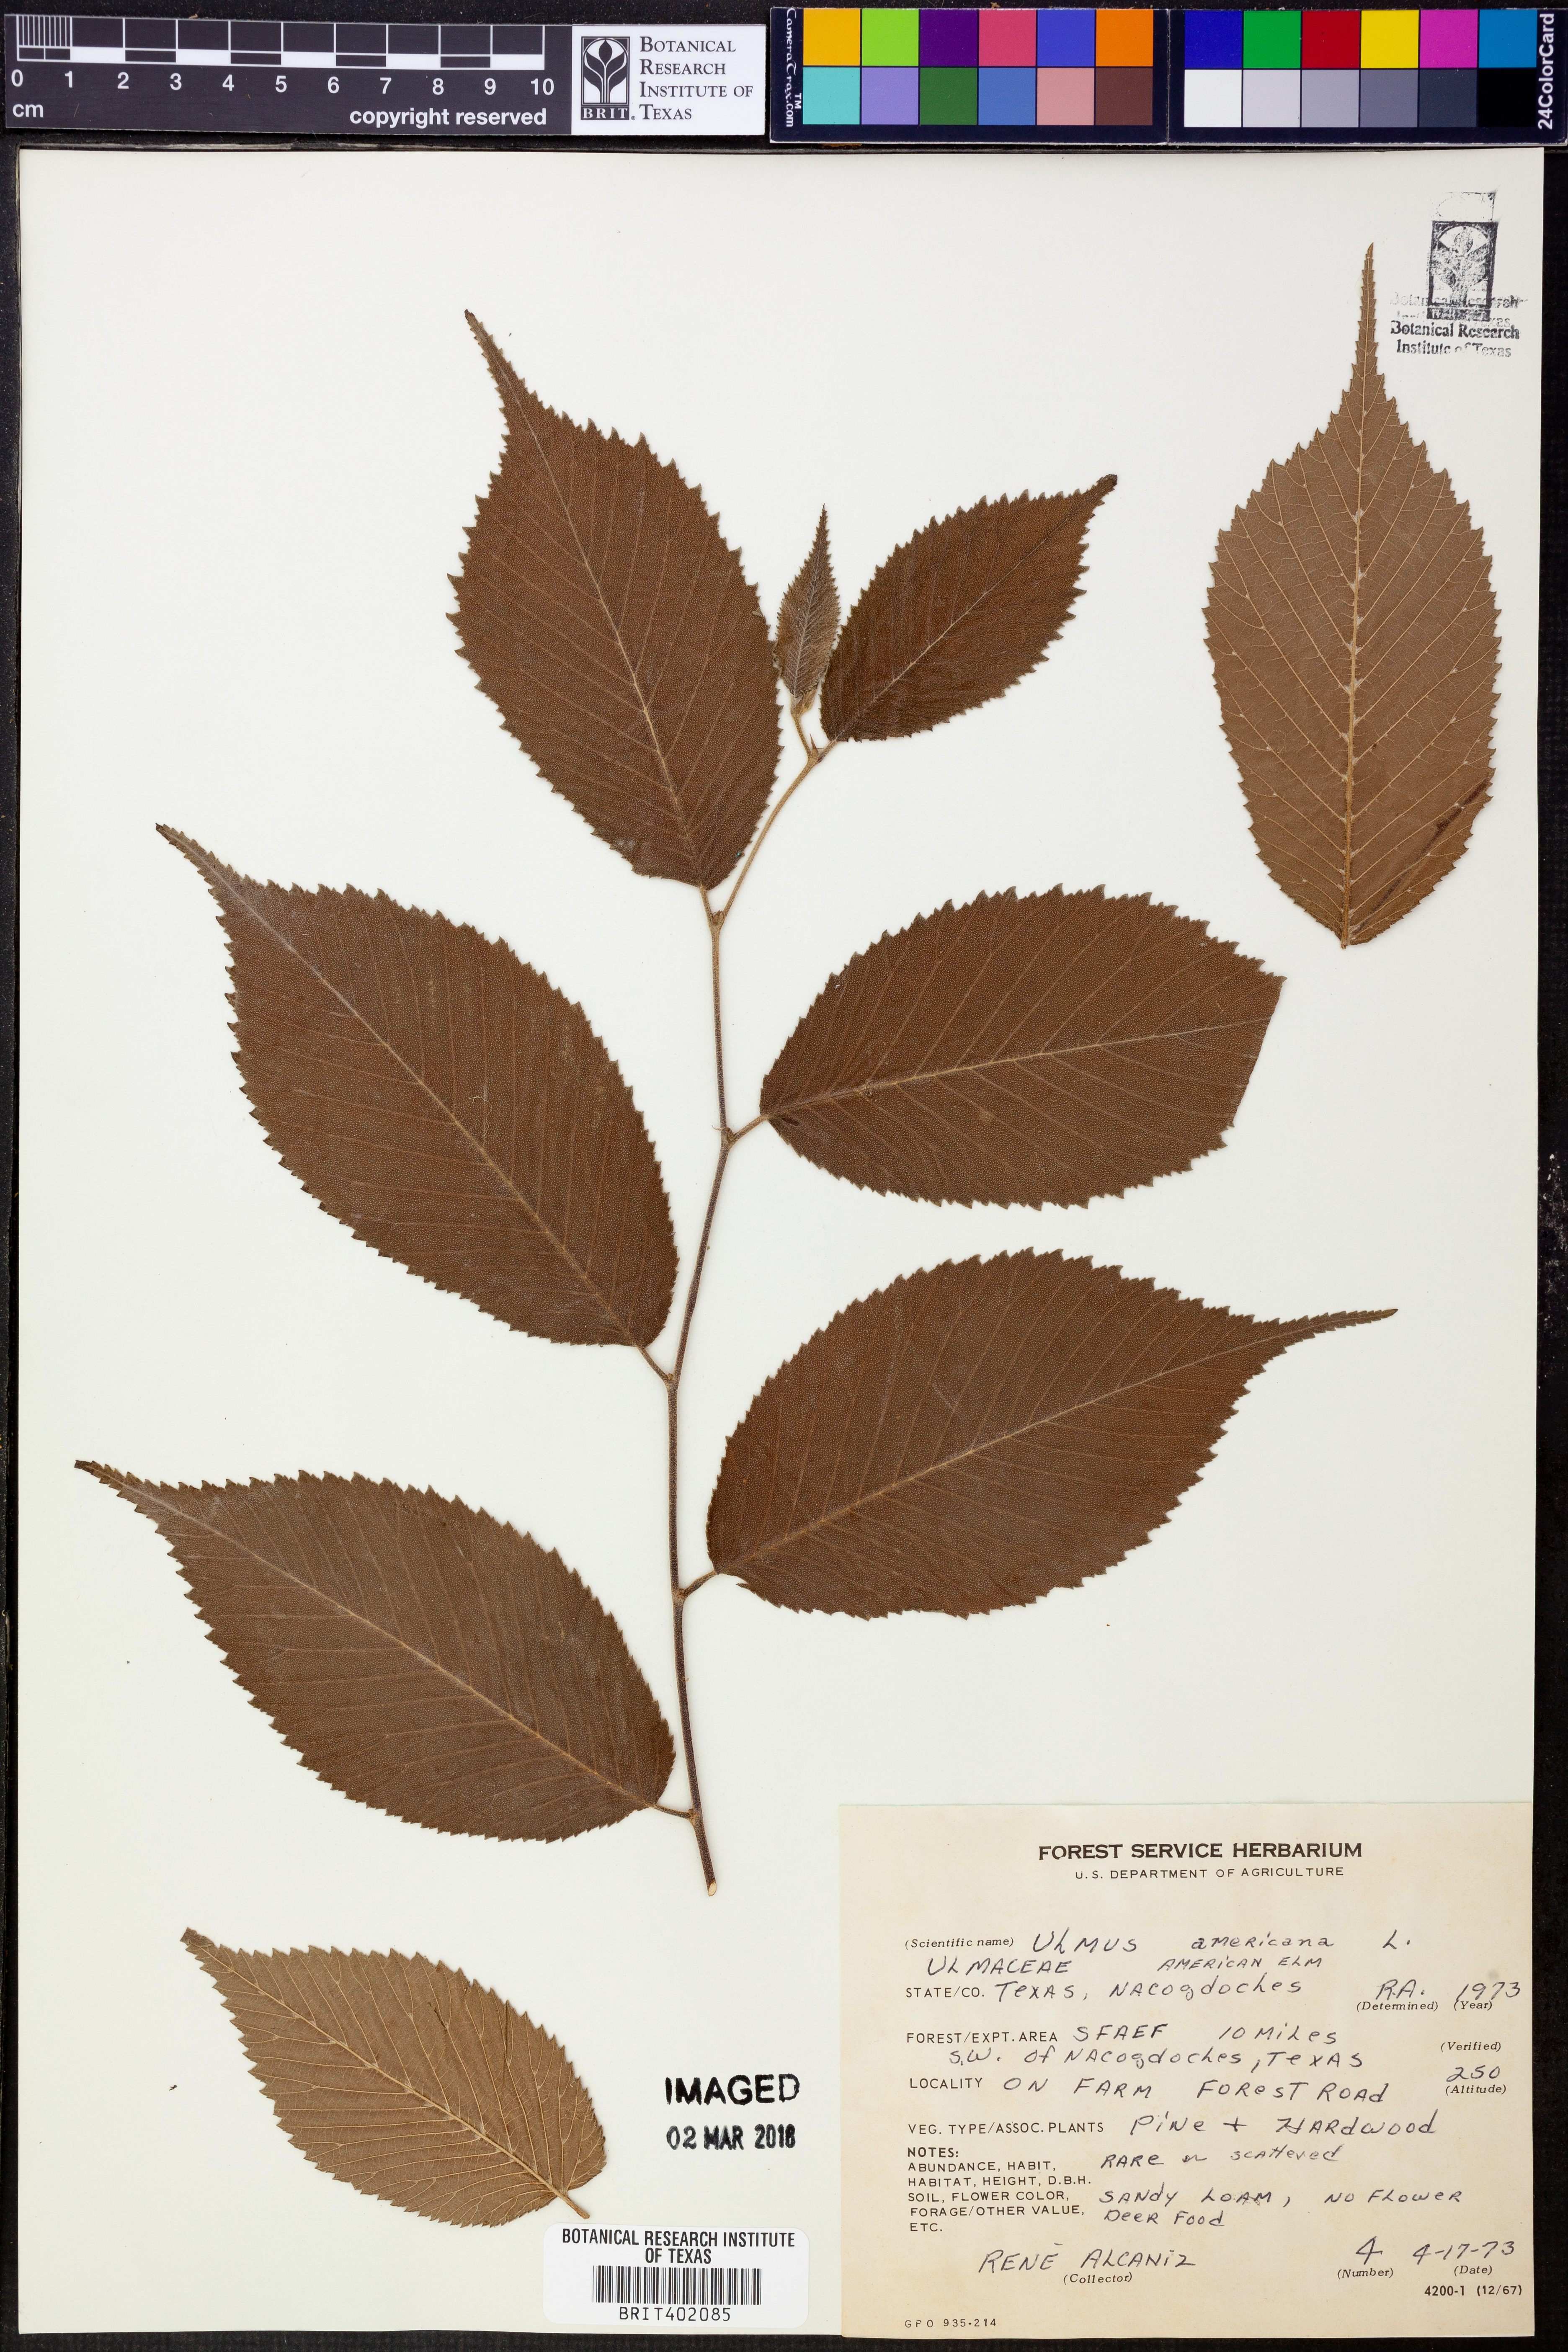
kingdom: Plantae
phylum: Tracheophyta
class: Magnoliopsida
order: Rosales
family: Ulmaceae
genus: Ulmus
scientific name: Ulmus americana
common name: American elm
